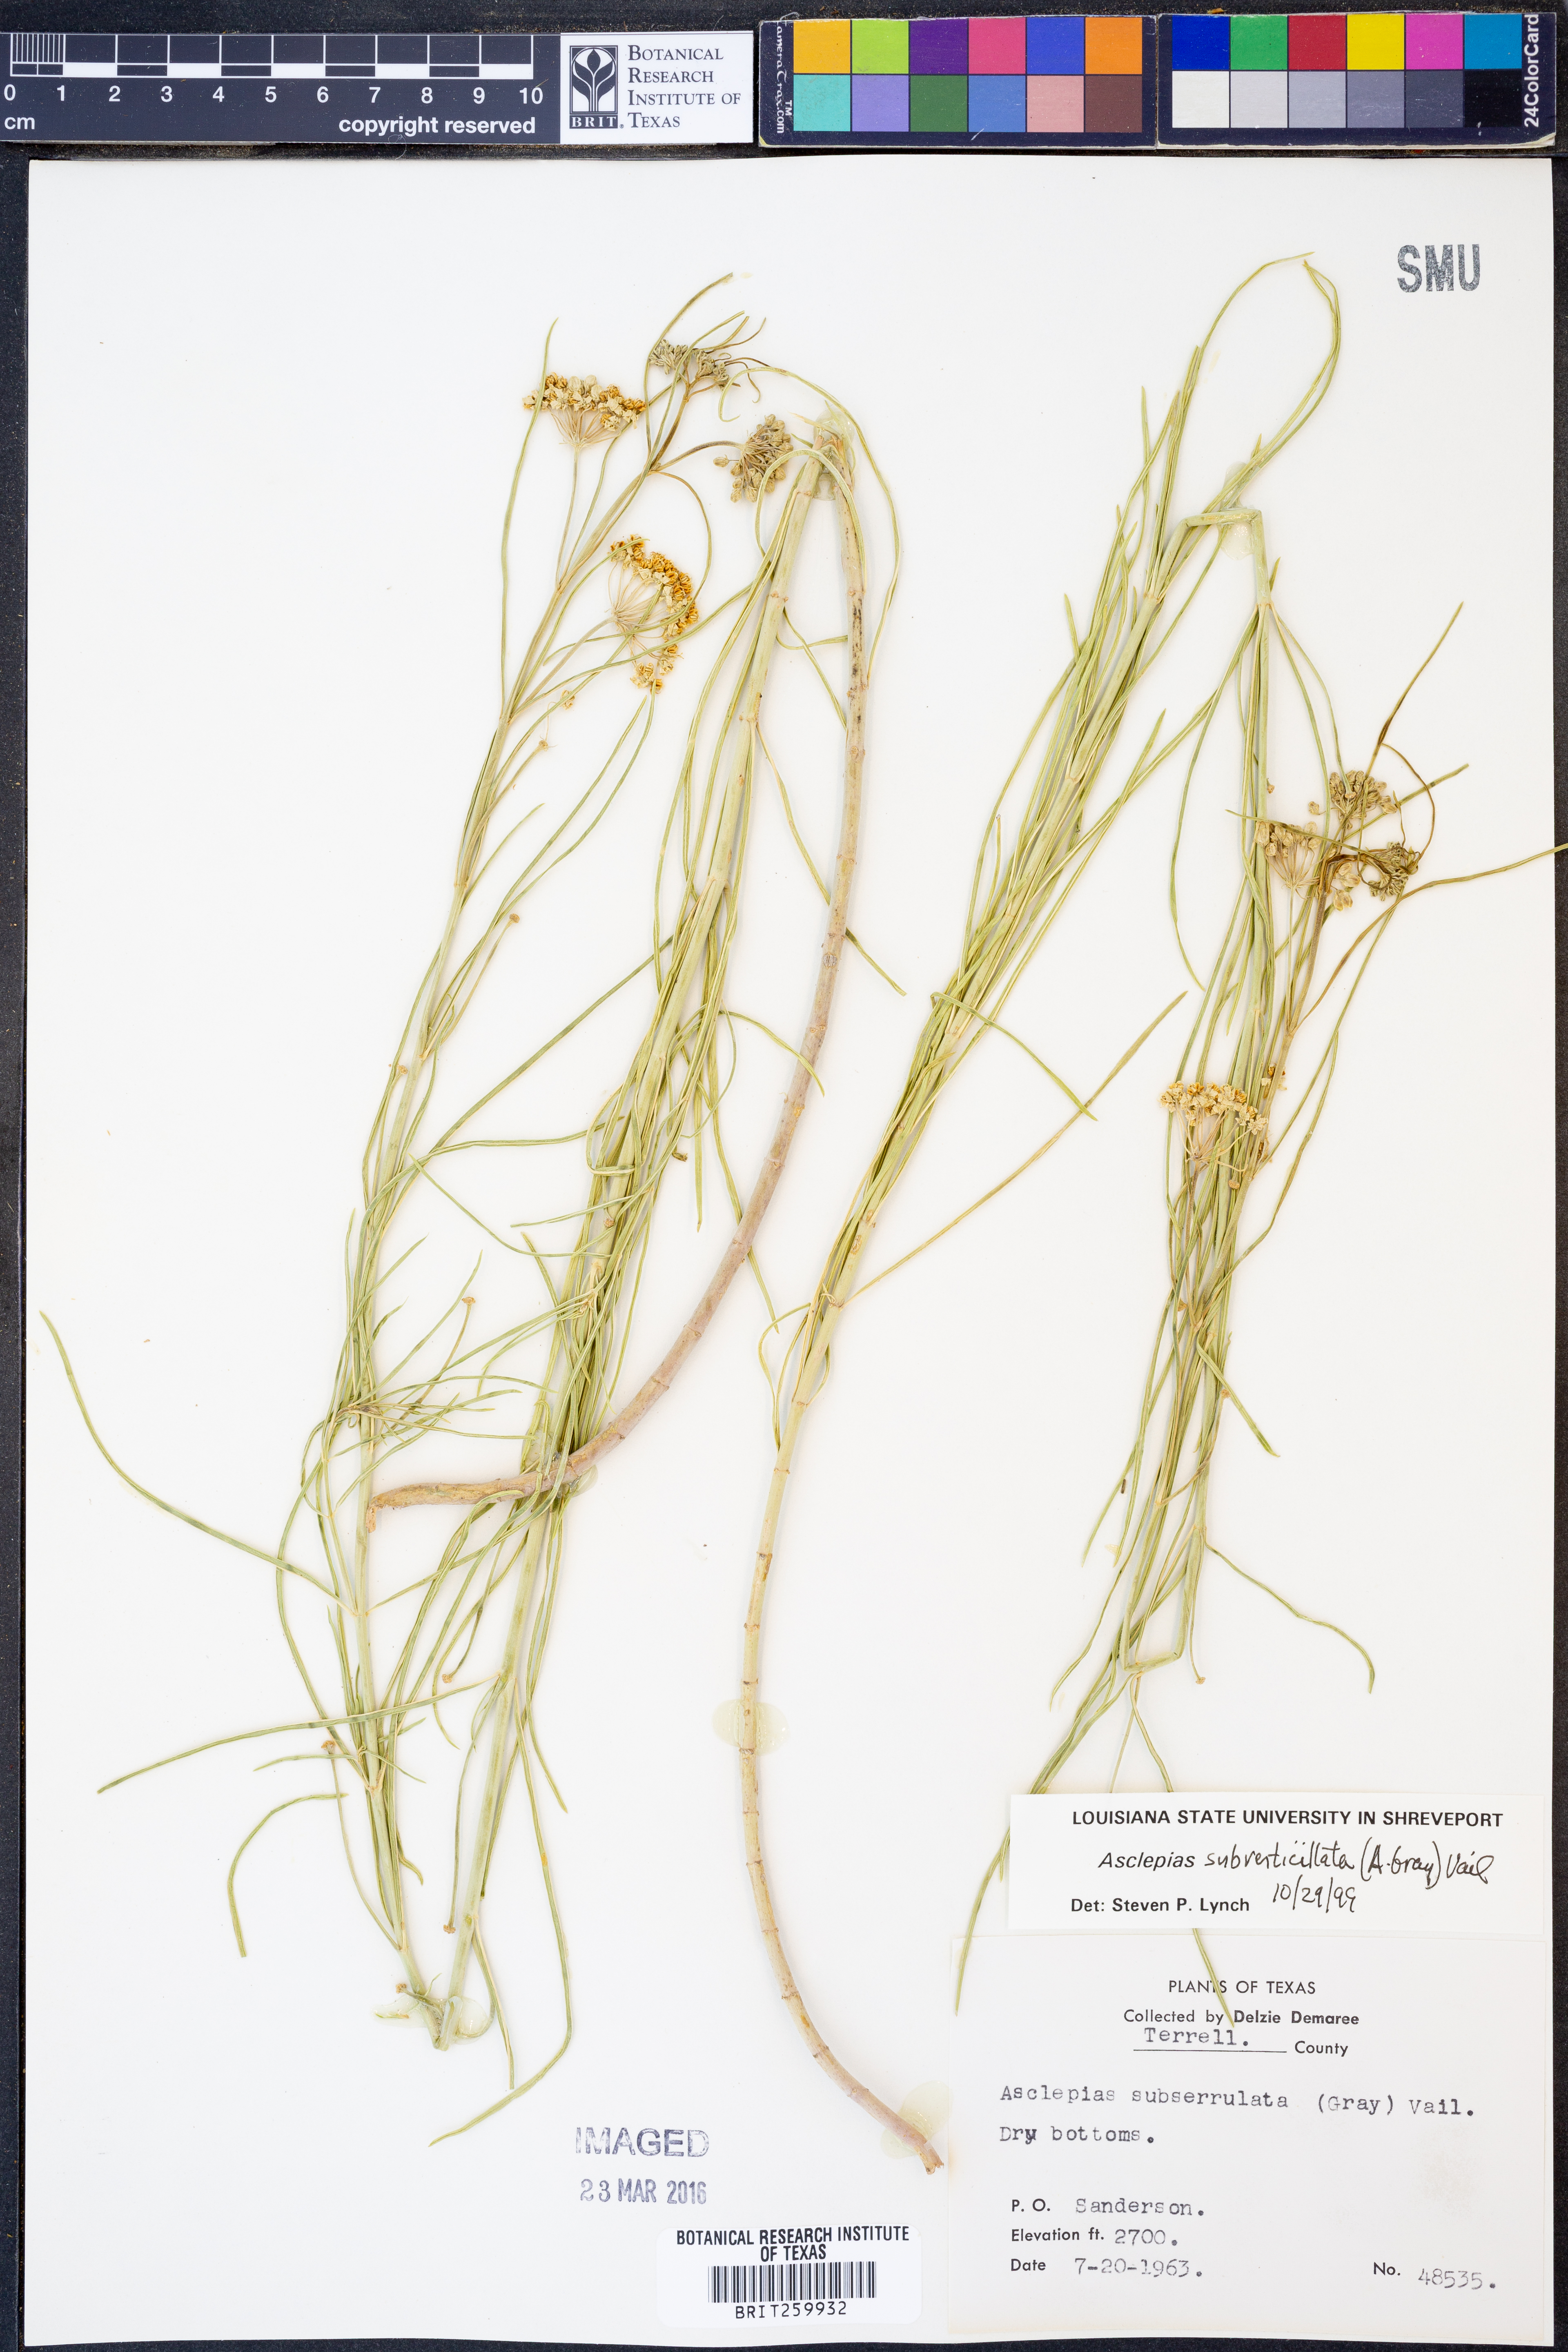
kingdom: Plantae
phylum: Tracheophyta
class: Magnoliopsida
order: Gentianales
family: Apocynaceae
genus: Asclepias
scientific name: Asclepias subverticillata
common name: Horsetail milkweed
